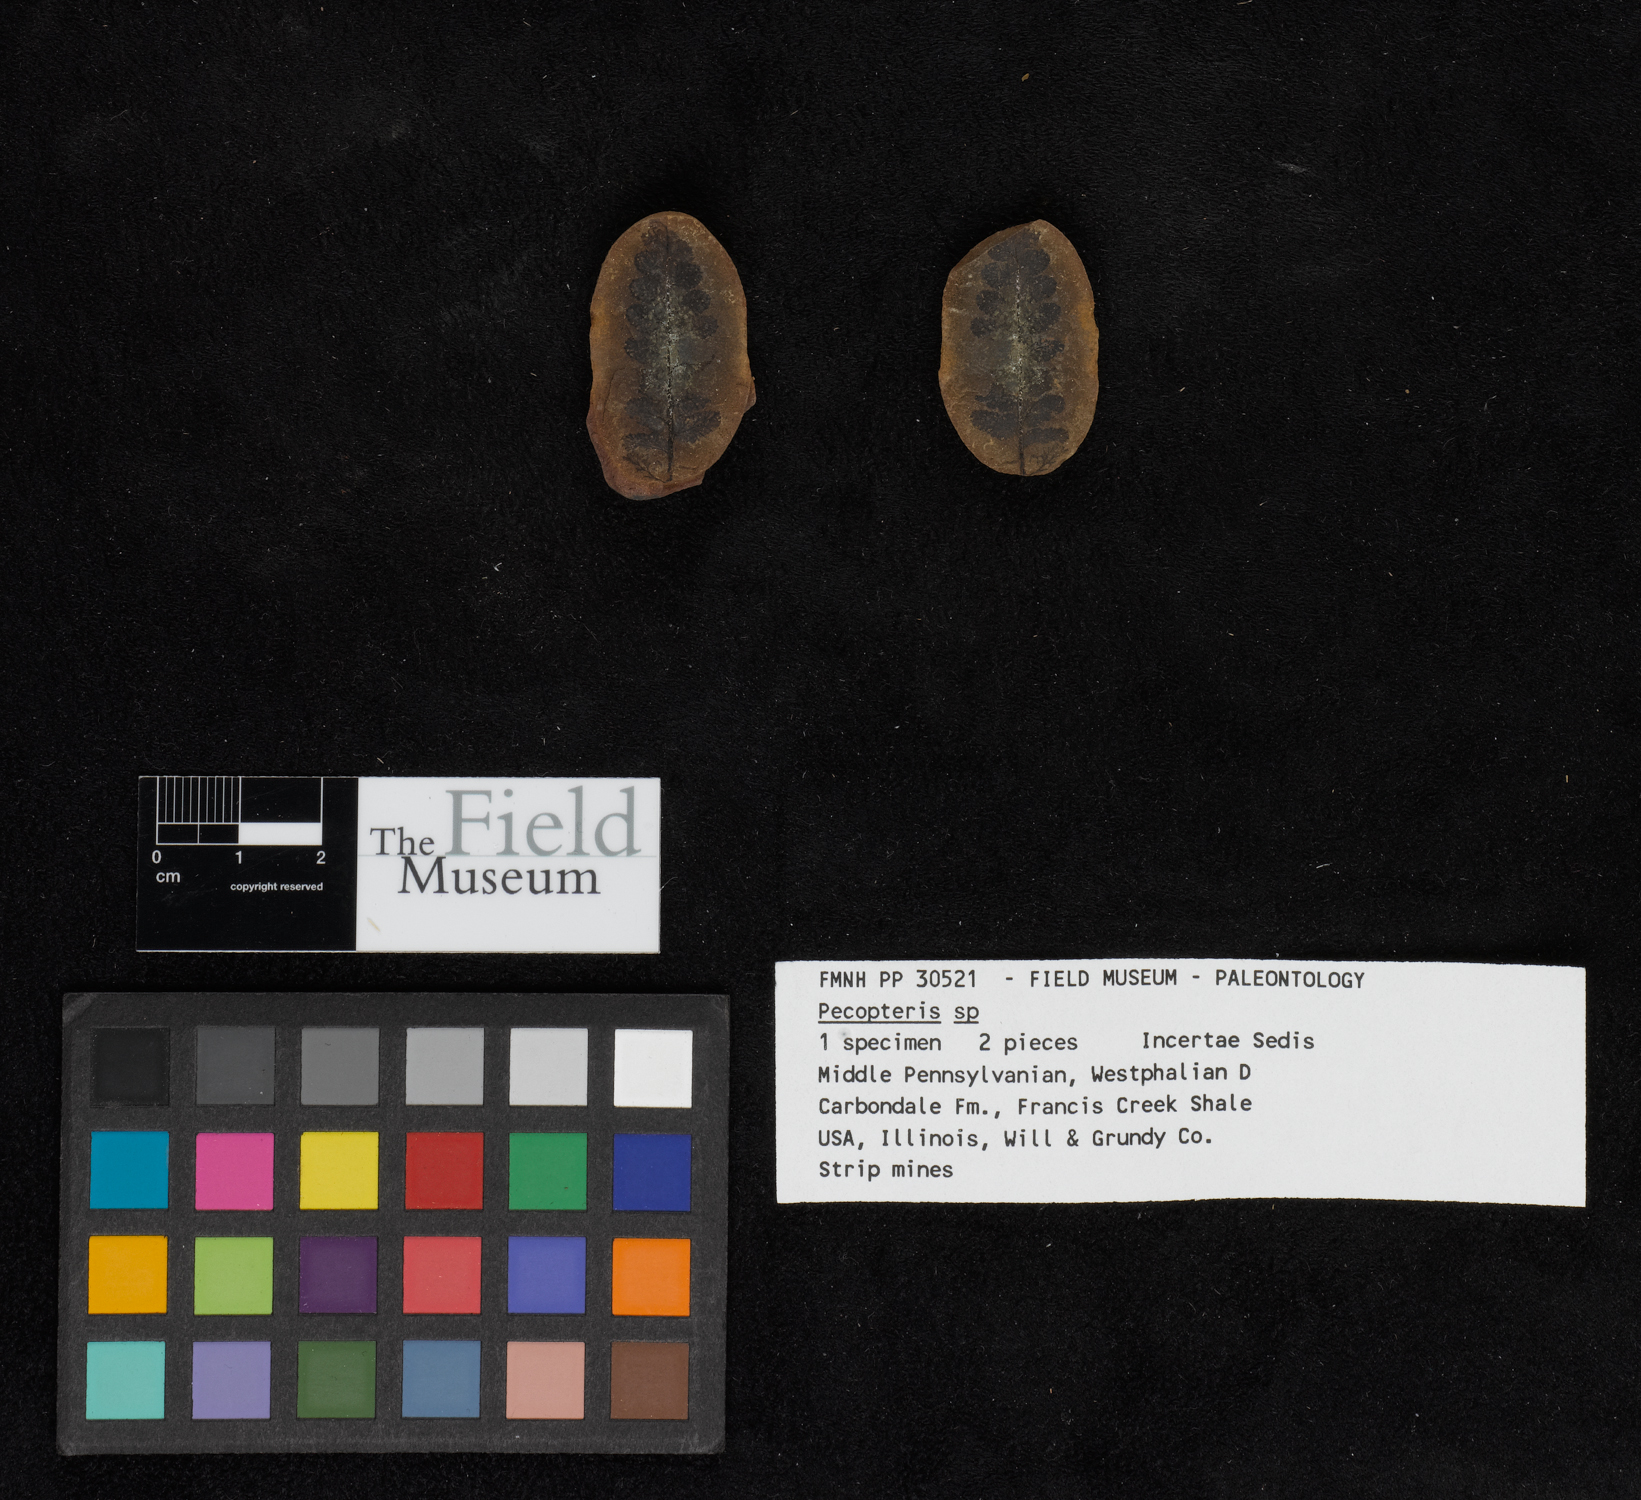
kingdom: Plantae
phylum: Tracheophyta
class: Polypodiopsida
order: Marattiales
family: Asterothecaceae
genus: Pecopteris
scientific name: Pecopteris
